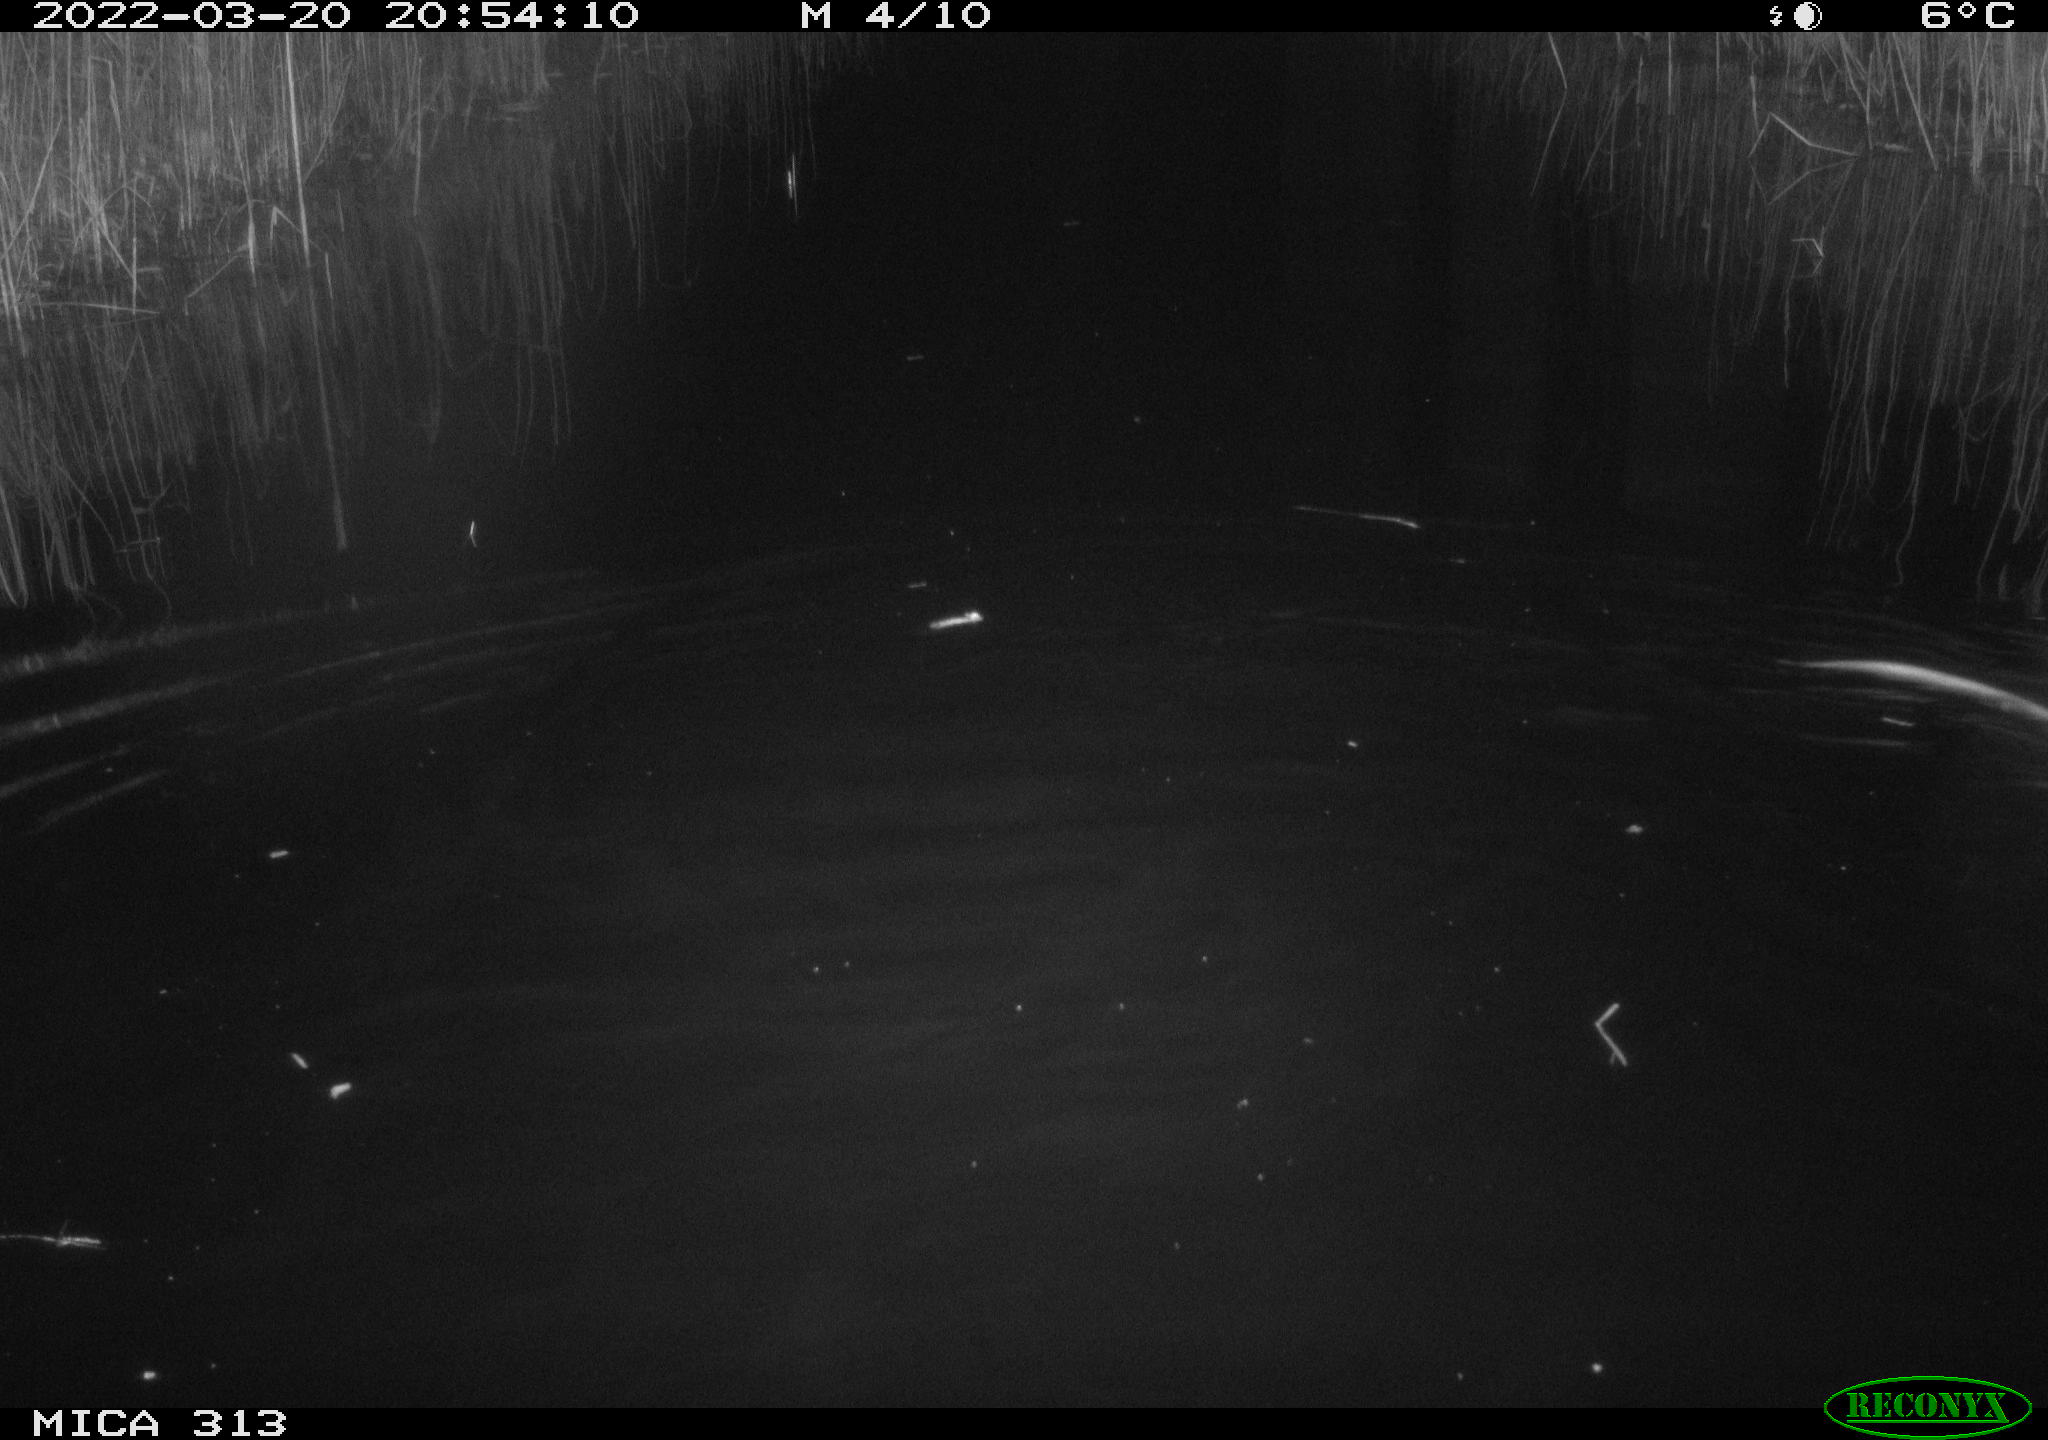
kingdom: Animalia
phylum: Chordata
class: Mammalia
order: Rodentia
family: Cricetidae
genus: Ondatra
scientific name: Ondatra zibethicus
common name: Muskrat
